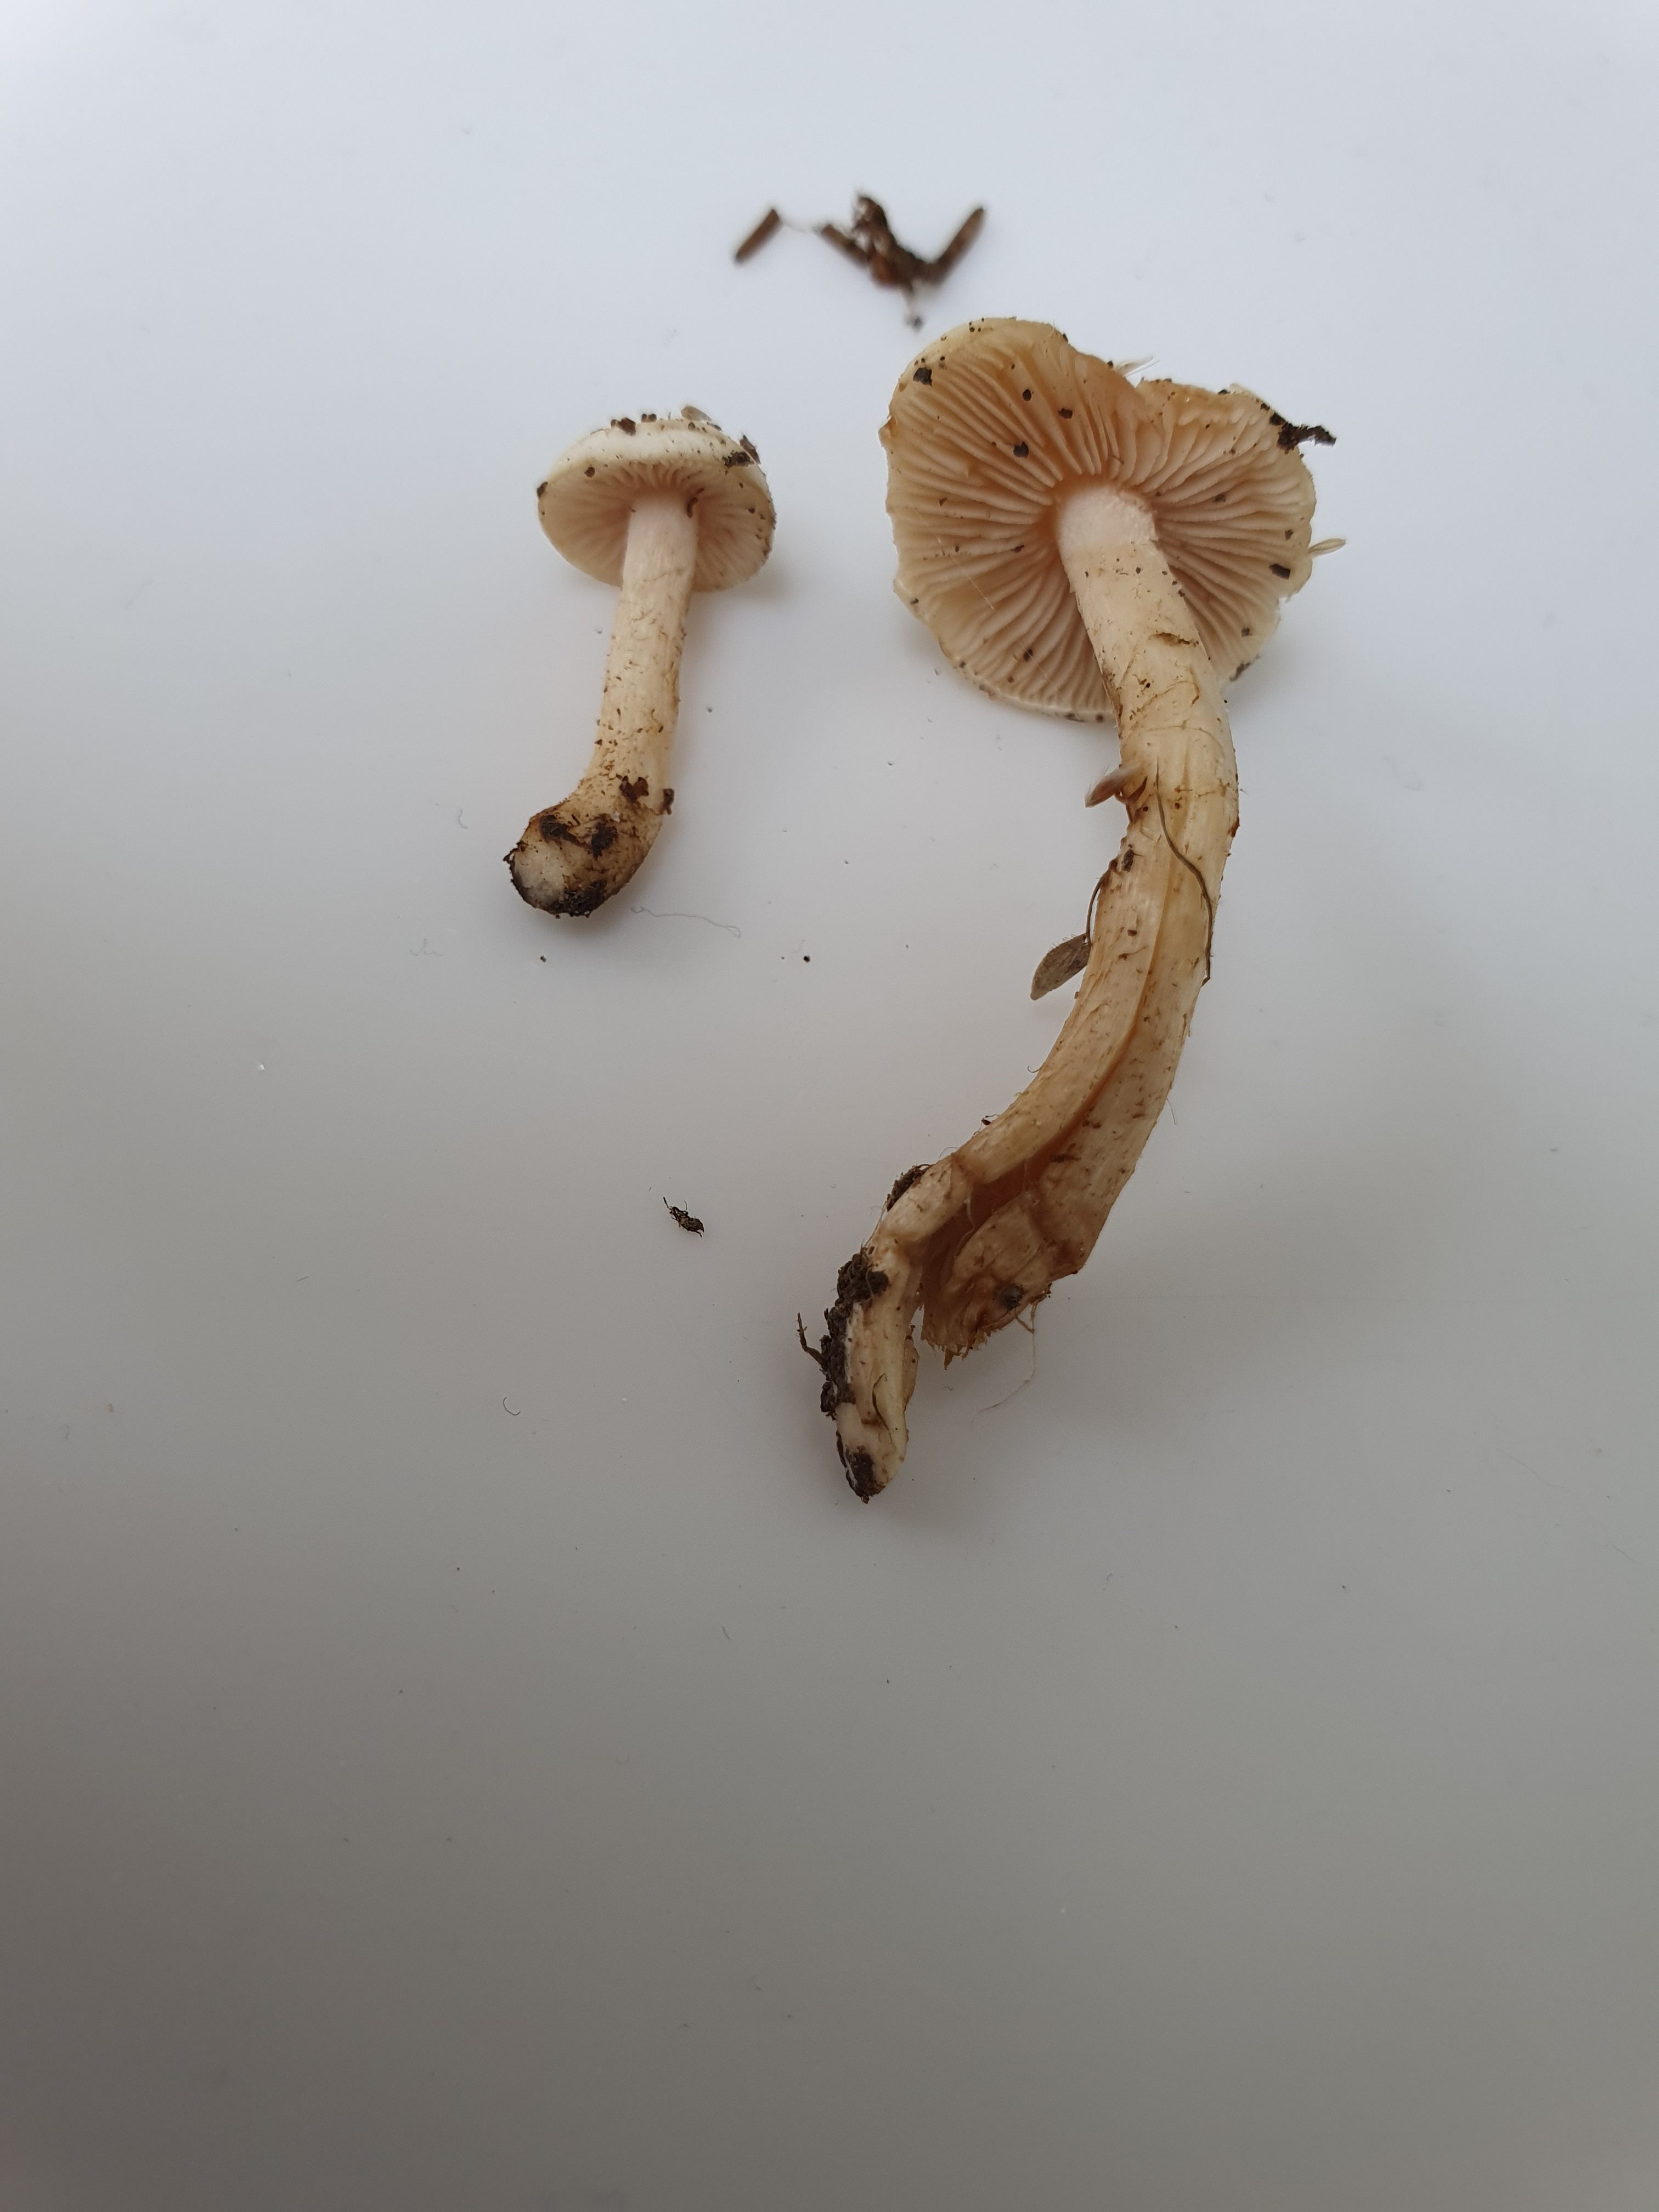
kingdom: Fungi
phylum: Basidiomycota
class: Agaricomycetes
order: Agaricales
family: Hymenogastraceae
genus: Hebeloma
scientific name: Hebeloma
